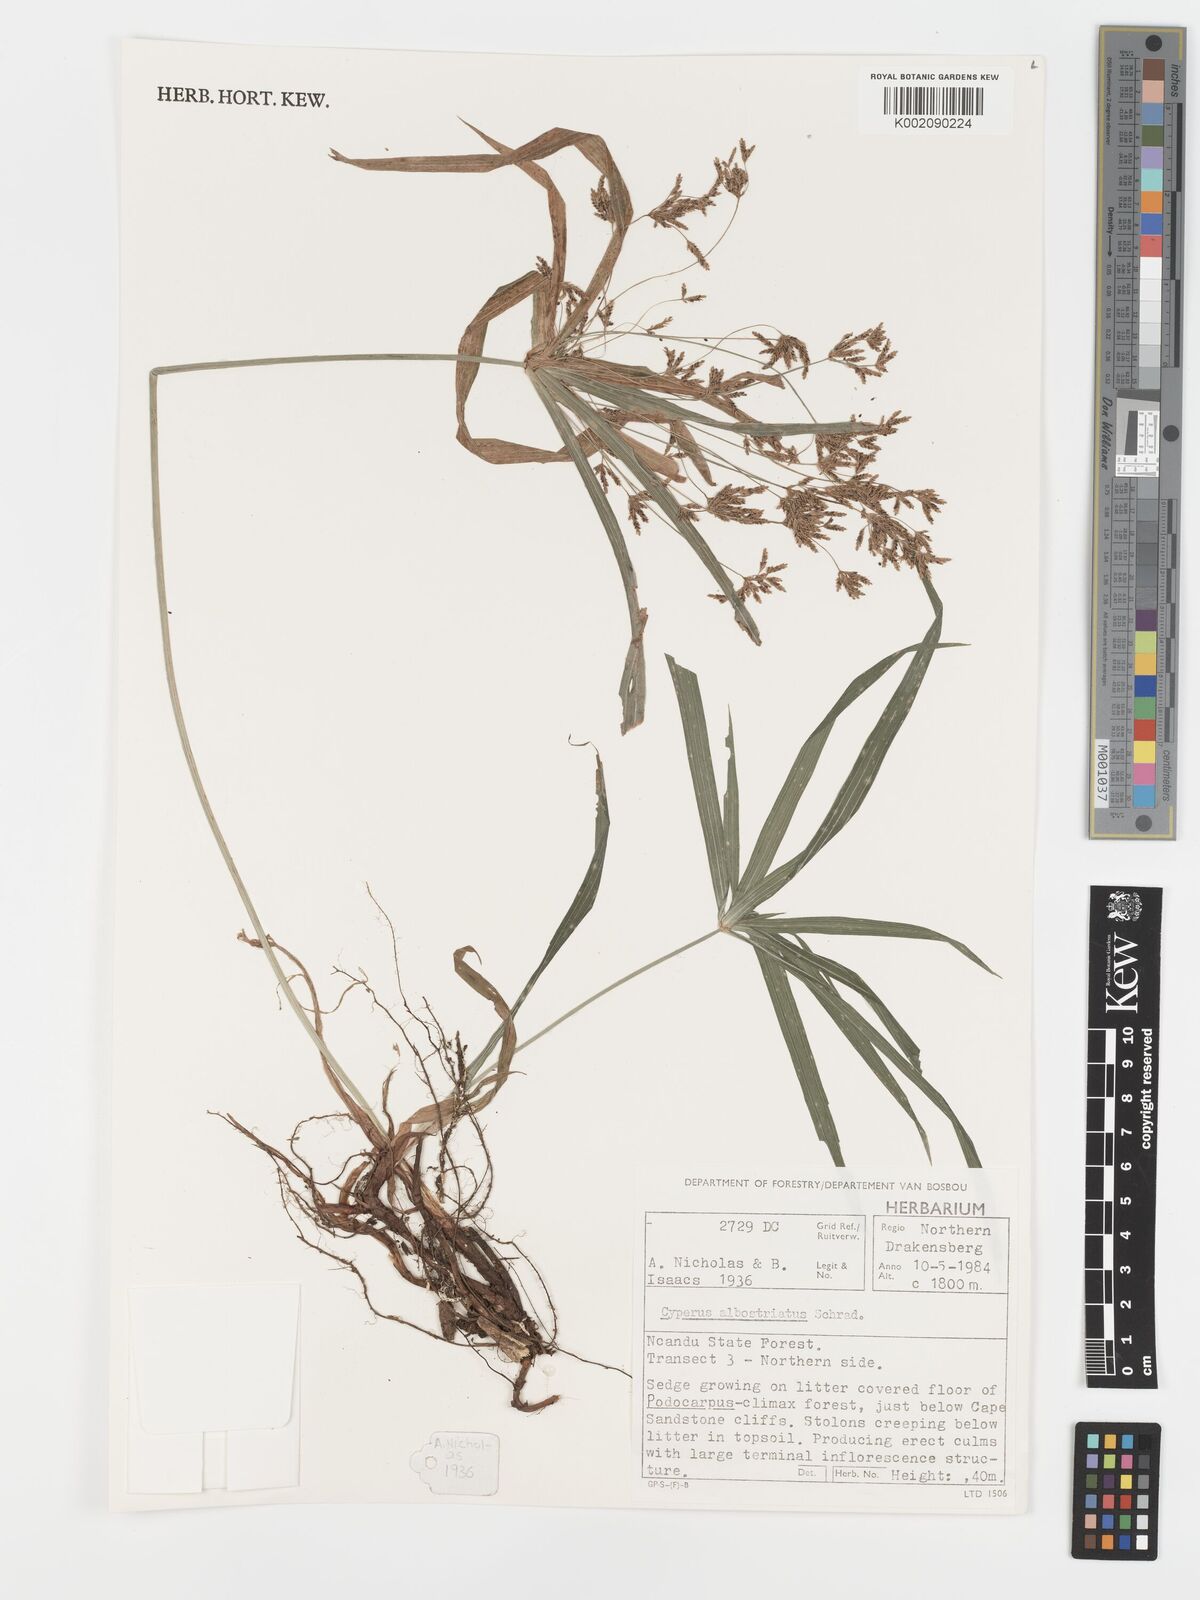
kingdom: Plantae
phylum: Tracheophyta
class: Liliopsida
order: Poales
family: Cyperaceae
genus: Cyperus
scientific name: Cyperus albostriatus
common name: Dwarf umbrella-grass
